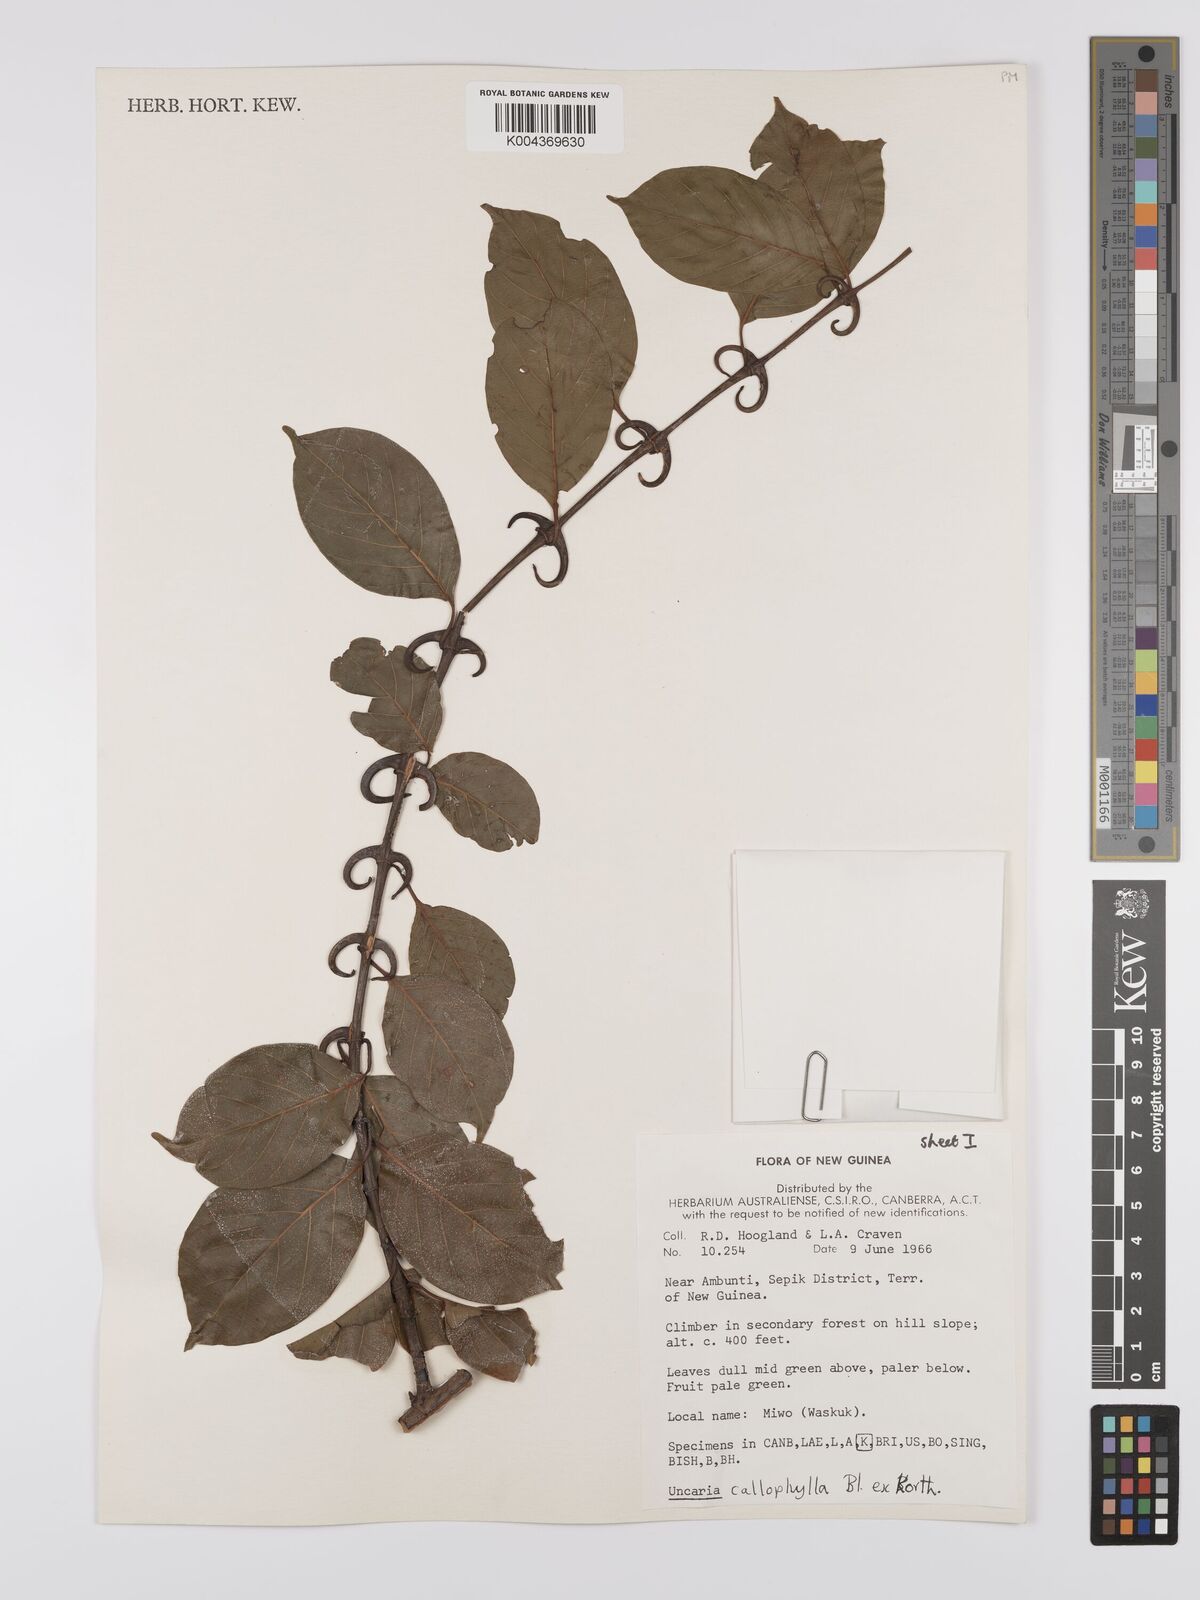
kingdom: Plantae
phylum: Tracheophyta
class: Magnoliopsida
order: Gentianales
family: Rubiaceae
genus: Uncaria
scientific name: Uncaria callophylla
